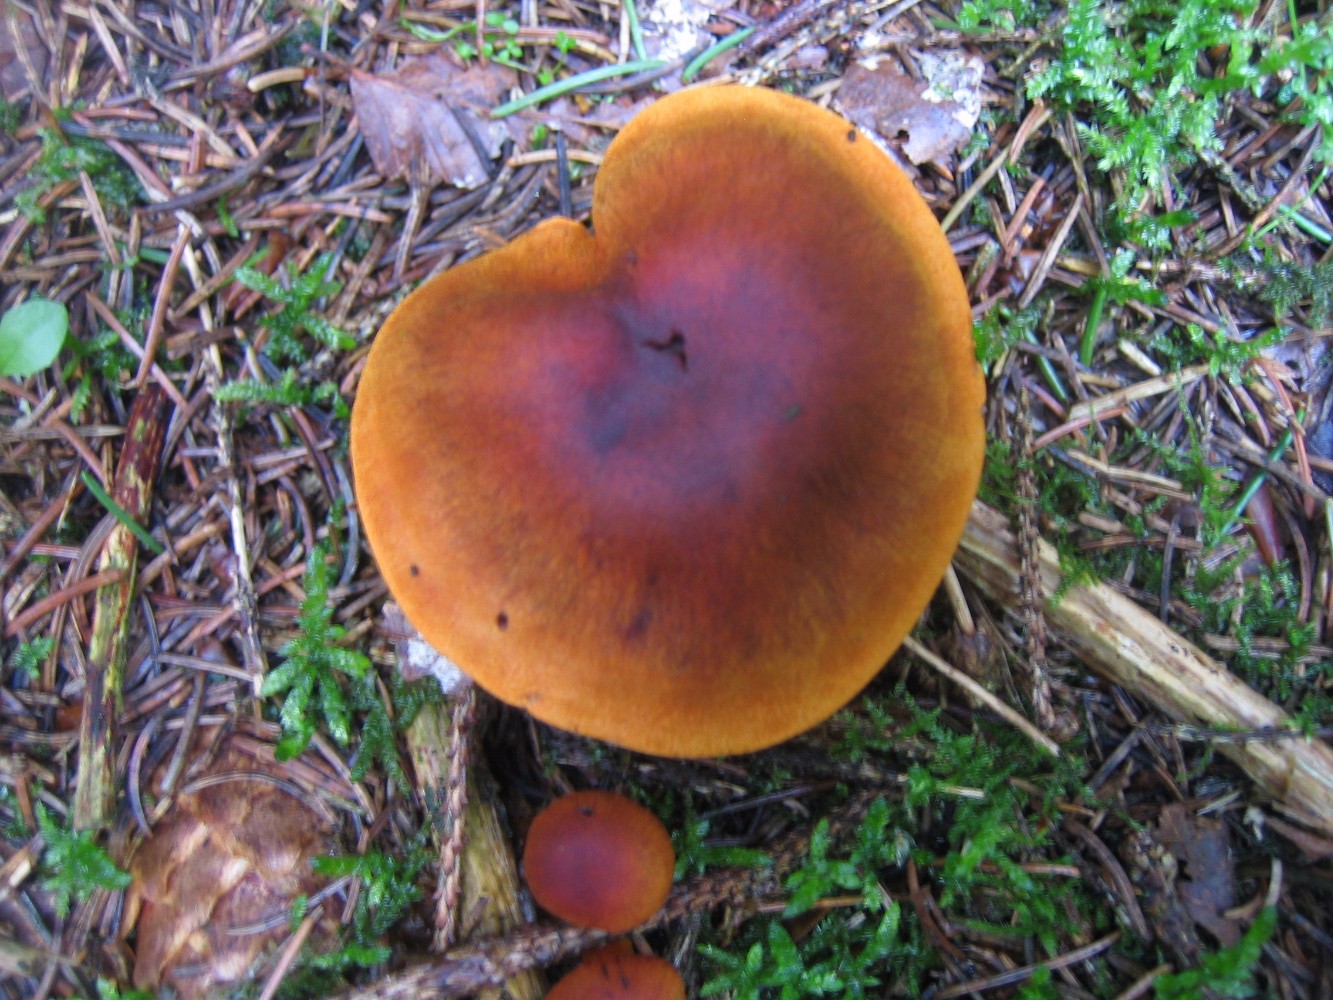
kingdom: Fungi
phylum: Basidiomycota
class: Agaricomycetes
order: Agaricales
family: Cortinariaceae
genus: Cortinarius
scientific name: Cortinarius malicorius
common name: grønkødet slørhat
